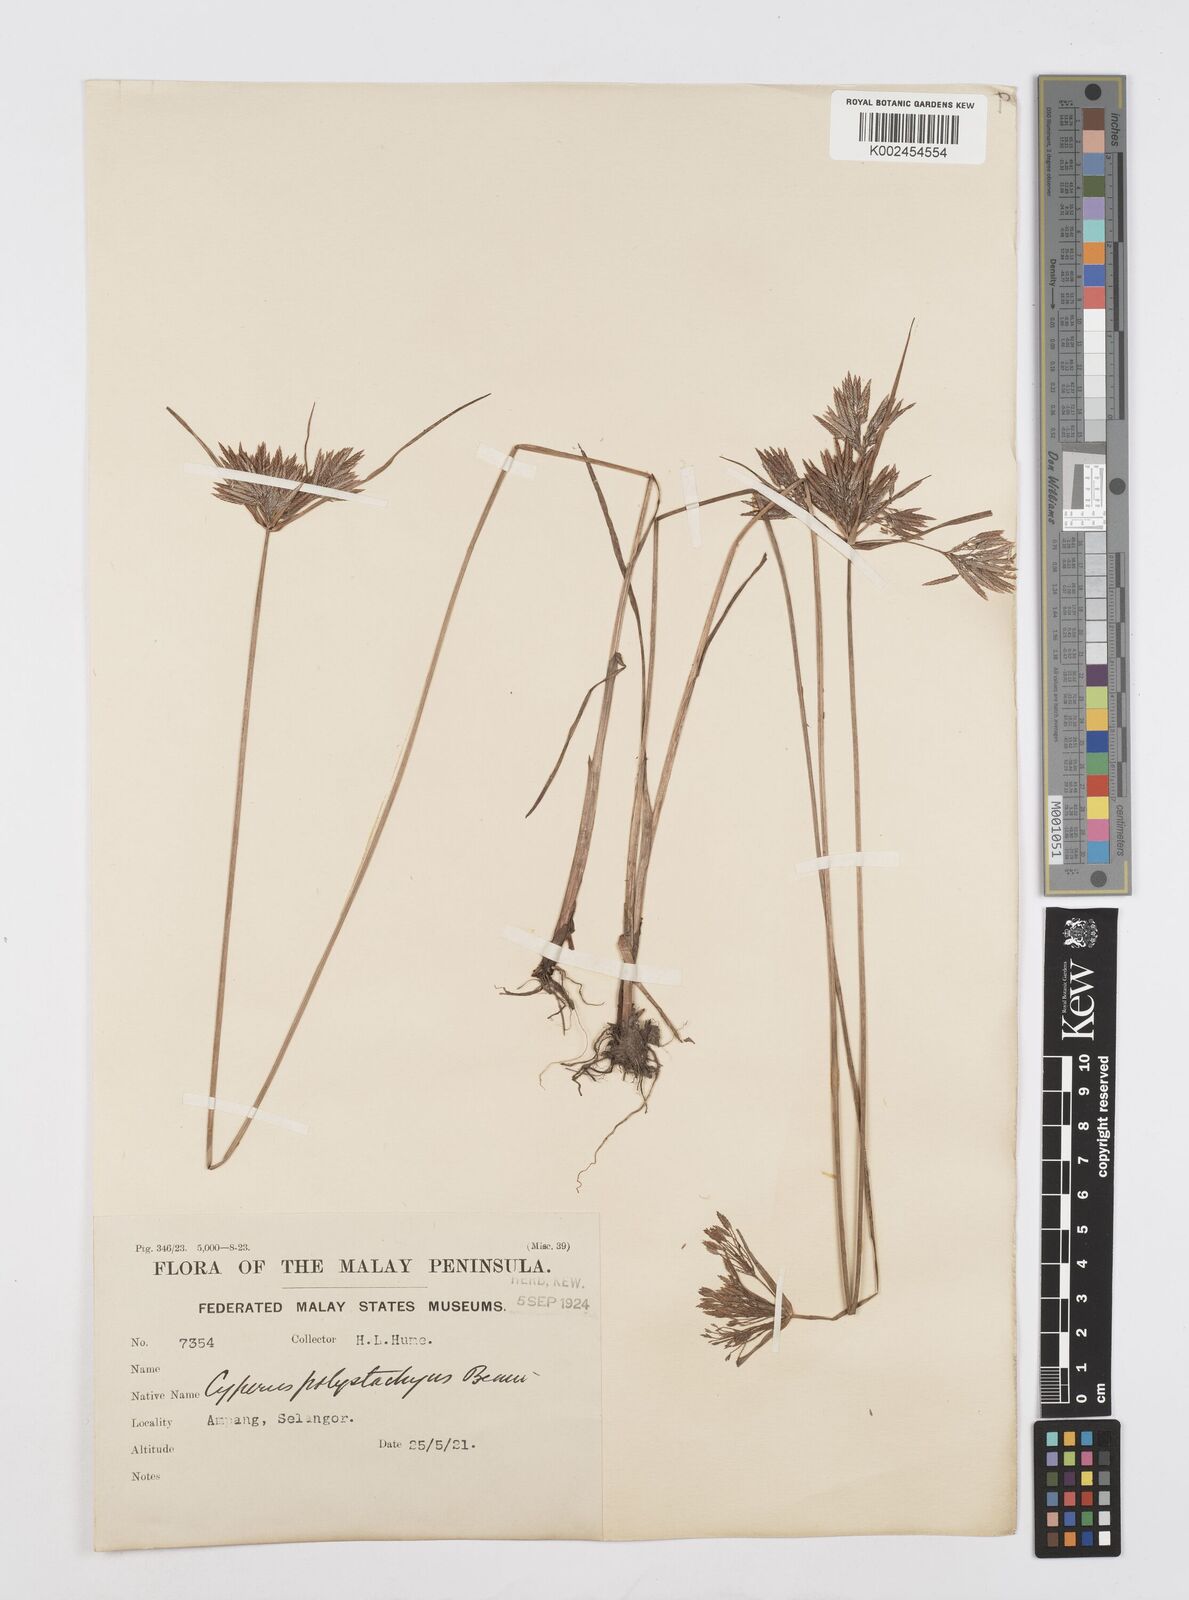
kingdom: Plantae
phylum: Tracheophyta
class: Liliopsida
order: Poales
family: Cyperaceae
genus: Cyperus
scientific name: Cyperus polystachyos
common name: Bunchy flat sedge
